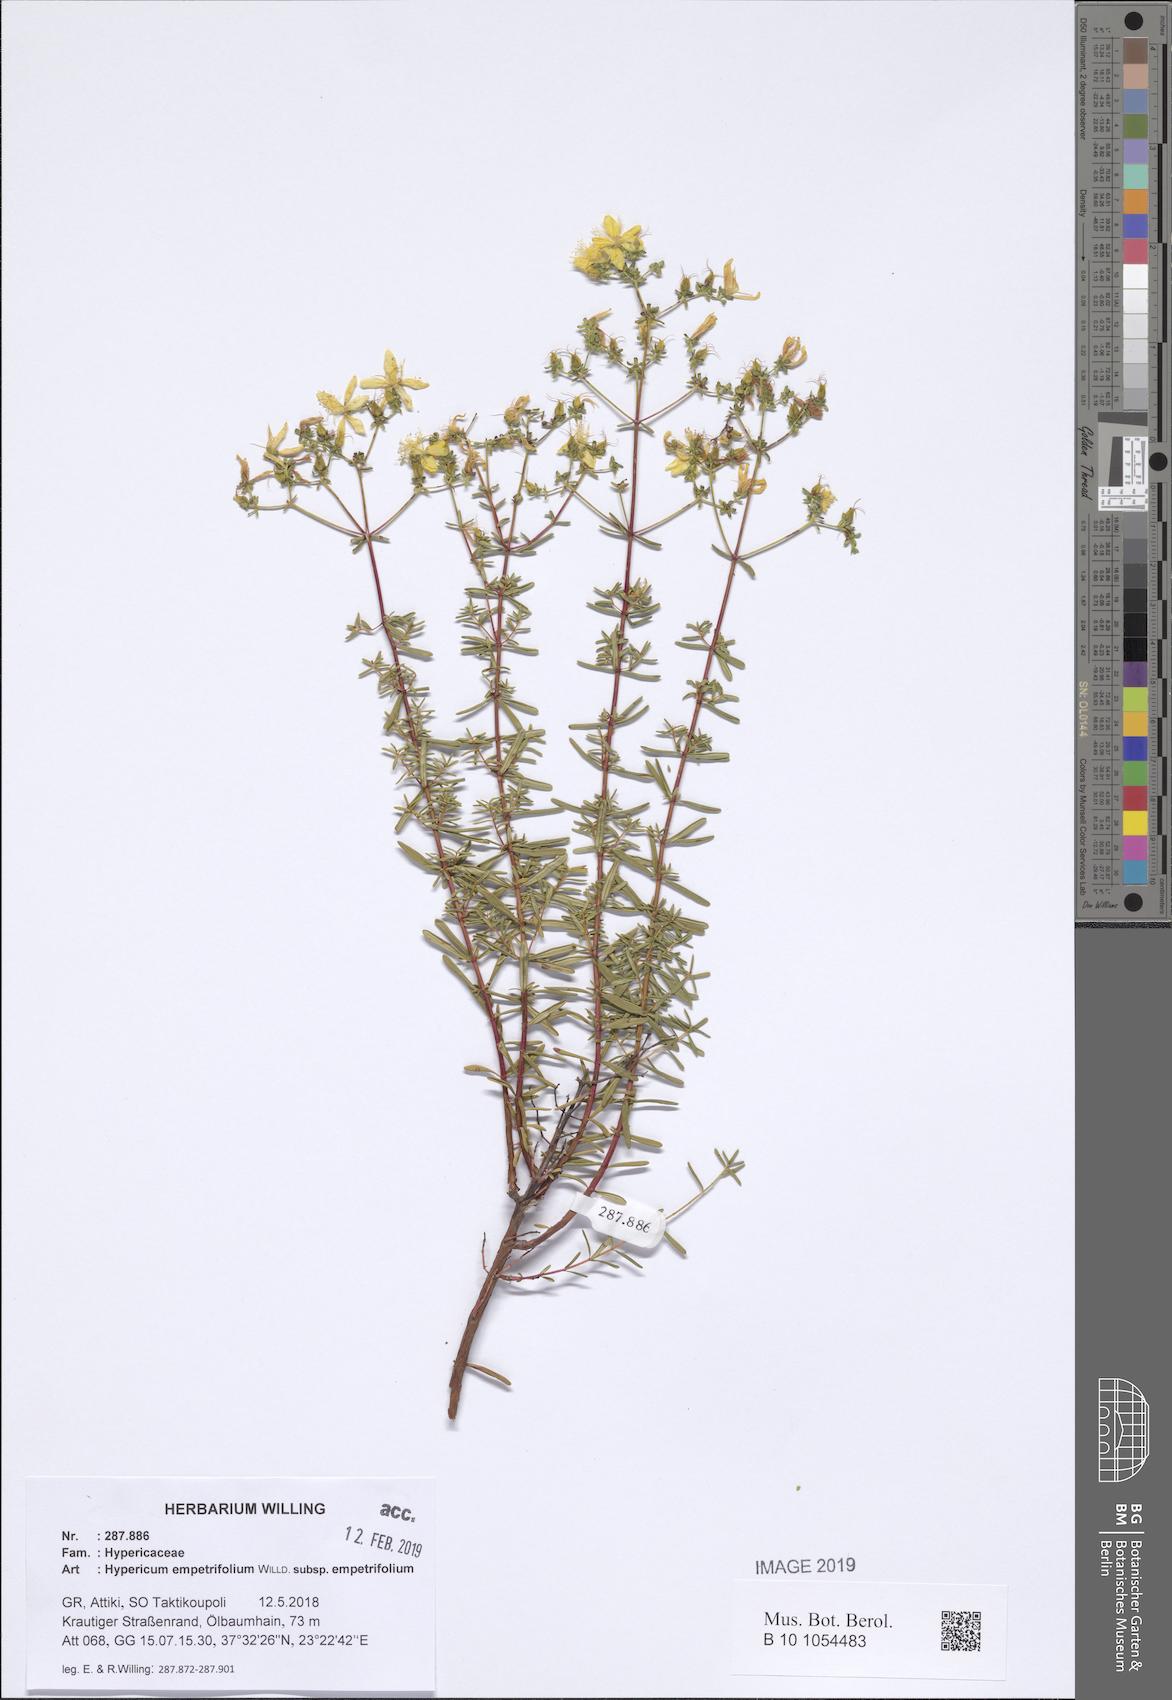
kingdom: Plantae
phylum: Tracheophyta
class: Magnoliopsida
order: Malpighiales
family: Hypericaceae
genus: Hypericum
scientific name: Hypericum empetrifolium
